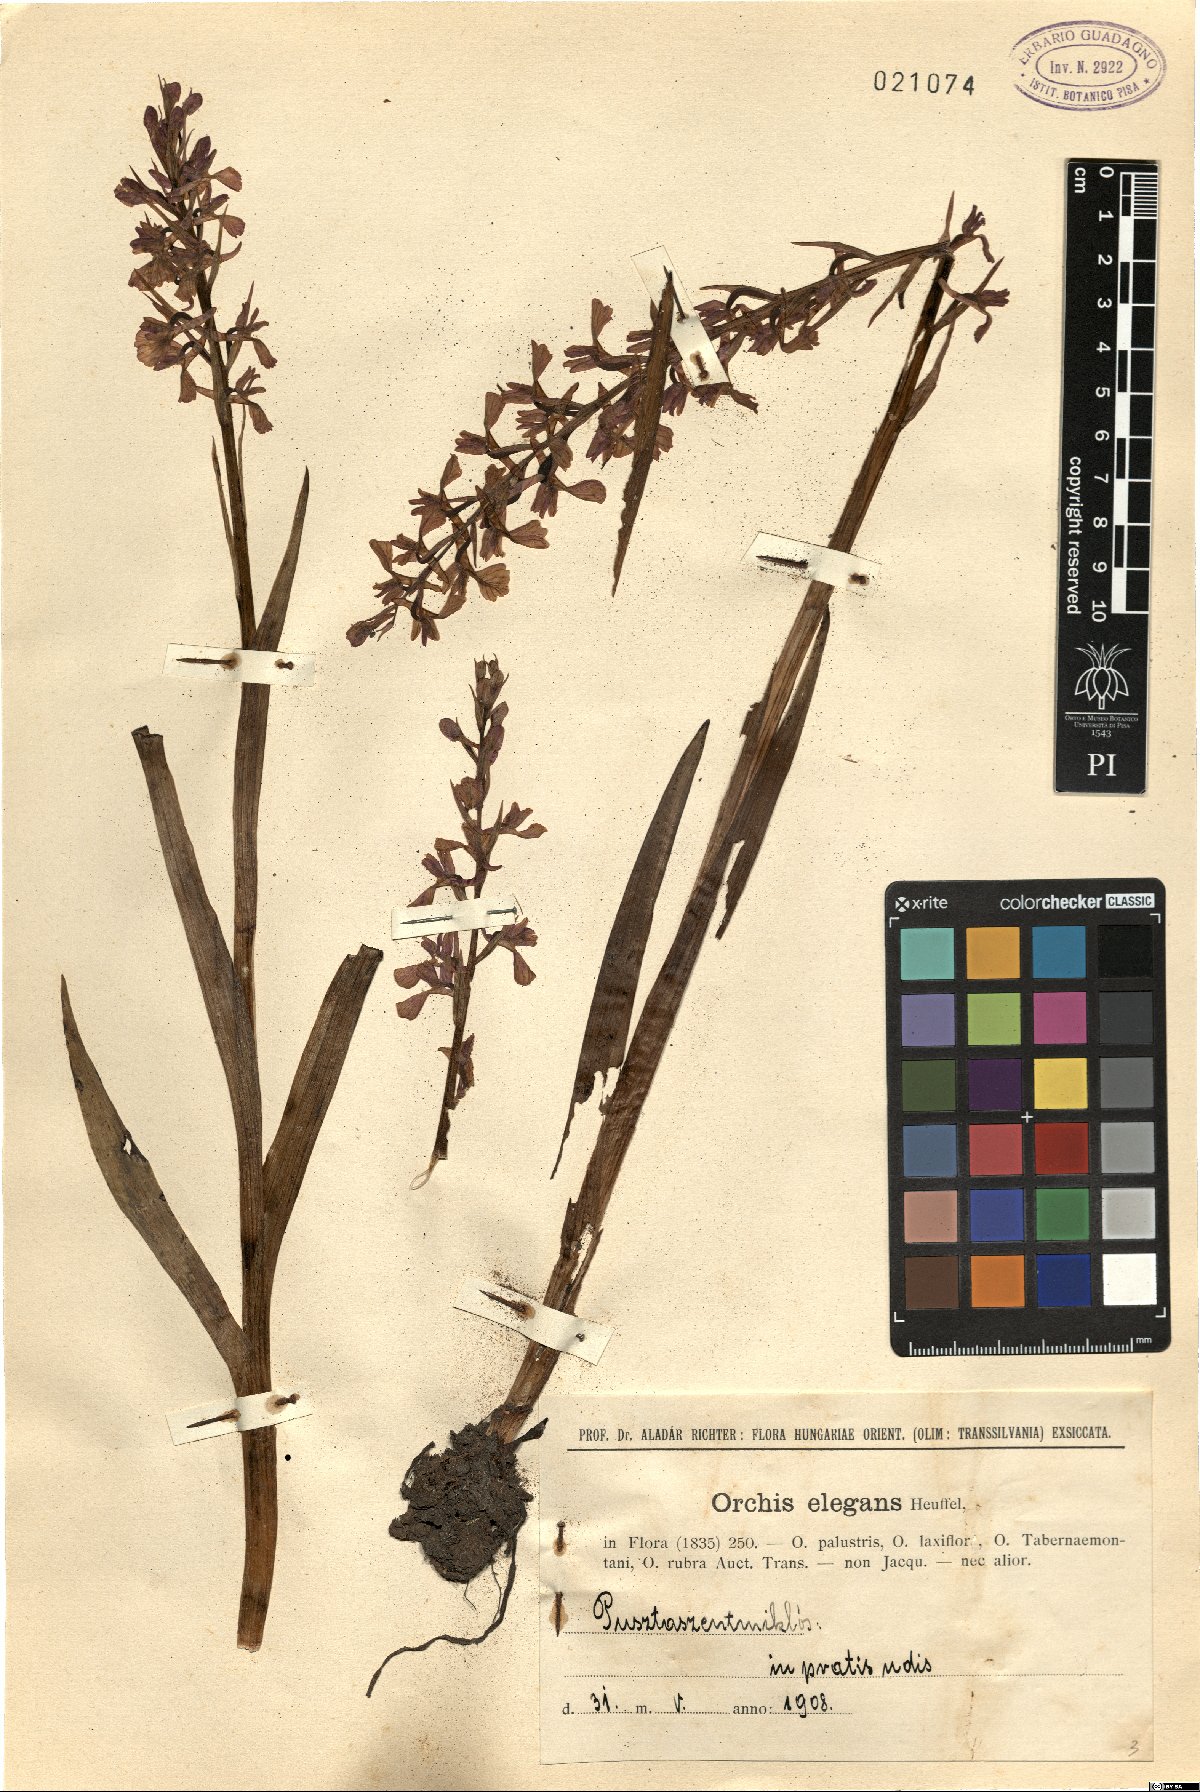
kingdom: Plantae
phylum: Tracheophyta
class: Liliopsida
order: Asparagales
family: Orchidaceae
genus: Anacamptis
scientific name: Anacamptis palustris
